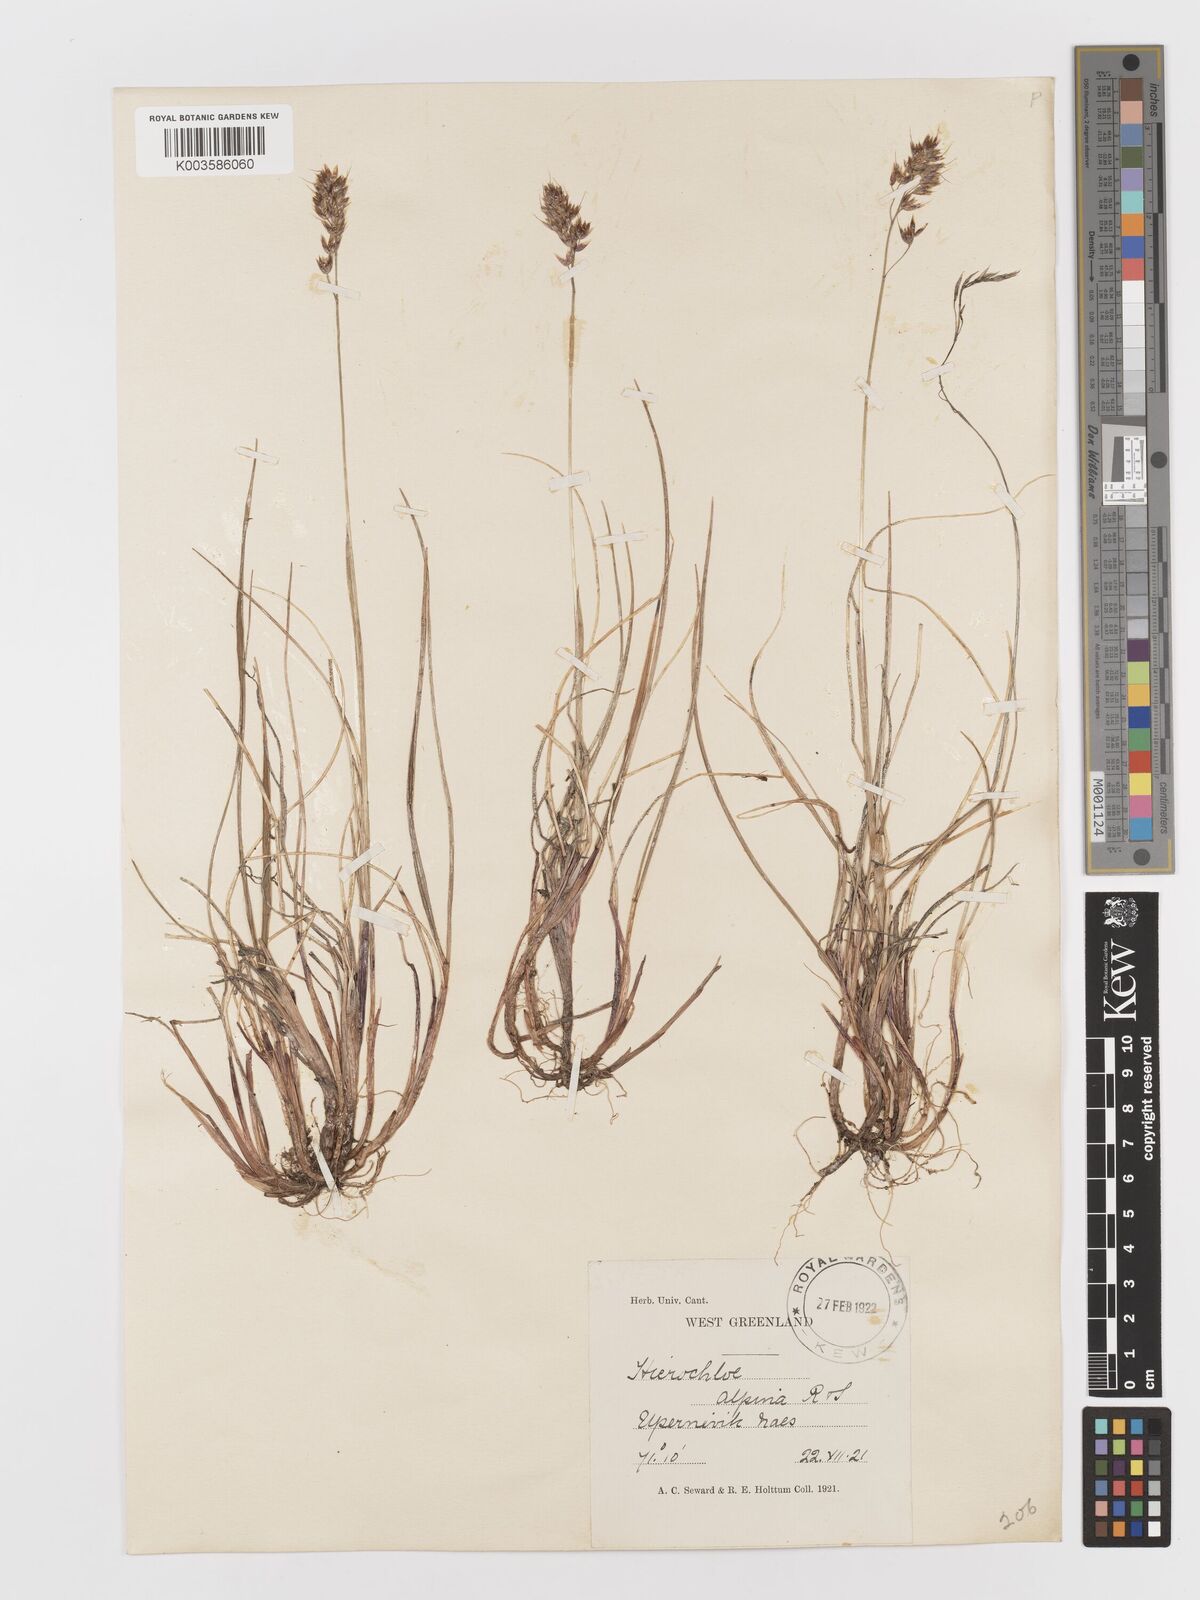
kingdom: Plantae
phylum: Tracheophyta
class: Liliopsida
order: Poales
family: Poaceae
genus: Anthoxanthum
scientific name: Anthoxanthum monticola
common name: Alpine sweetgrass
